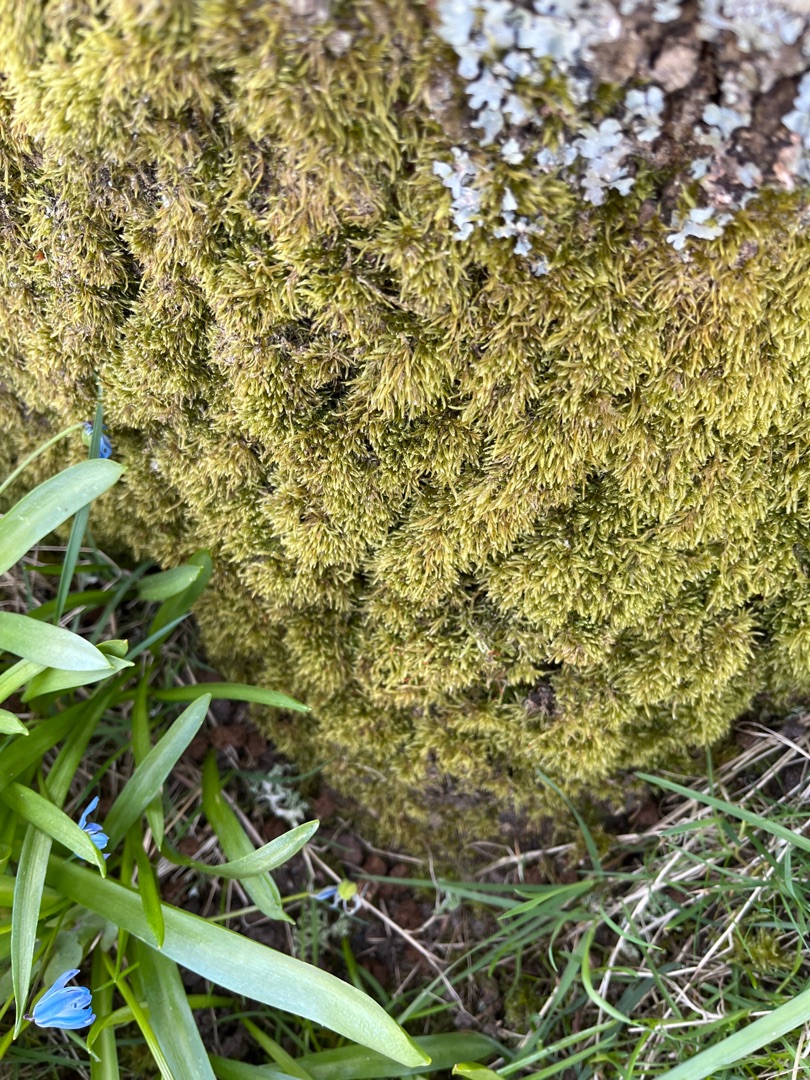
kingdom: Plantae
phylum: Bryophyta
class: Bryopsida
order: Hypnales
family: Hypnaceae
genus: Hypnum
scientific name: Hypnum cupressiforme
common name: Almindelig cypresmos
